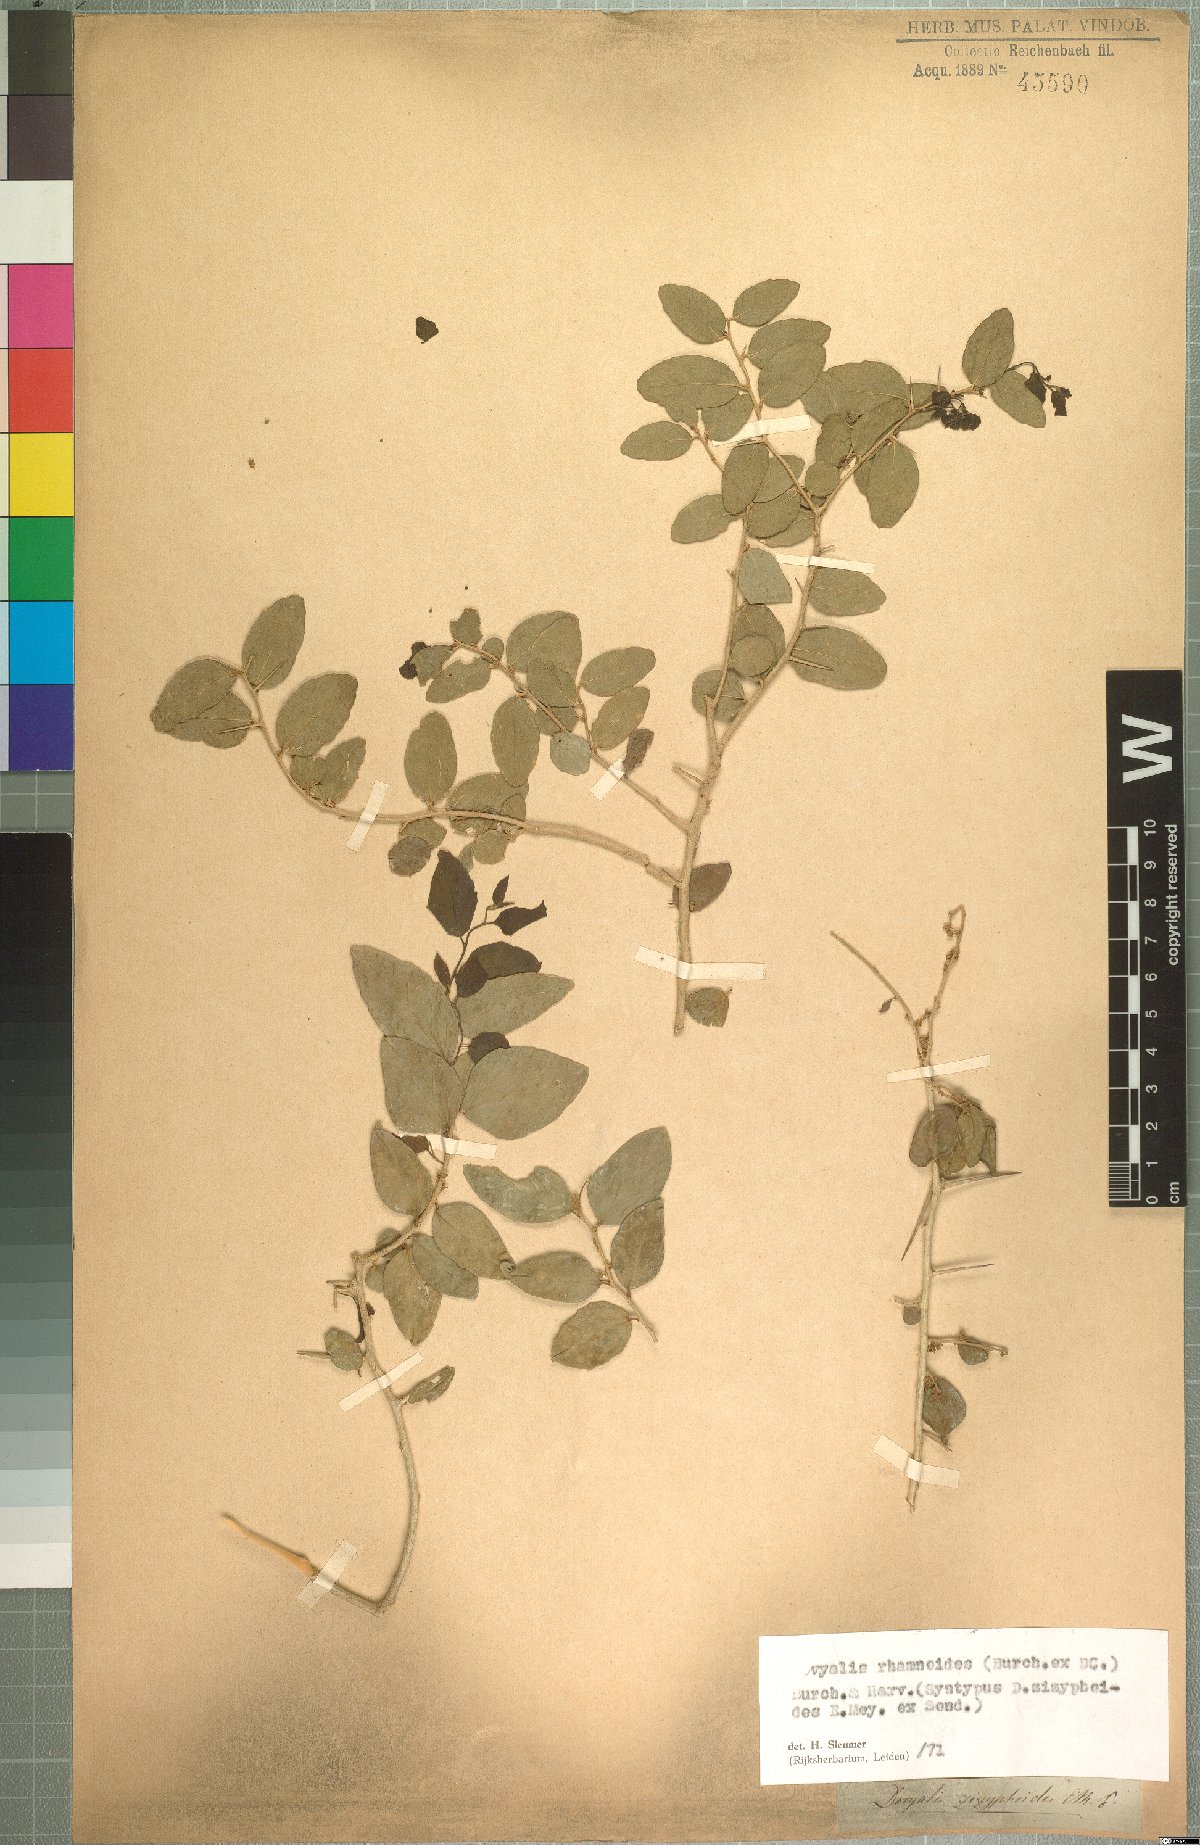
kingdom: Plantae
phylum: Tracheophyta
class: Magnoliopsida
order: Malpighiales
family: Salicaceae
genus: Dovyalis
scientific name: Dovyalis rhamnoides
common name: Sourberry
